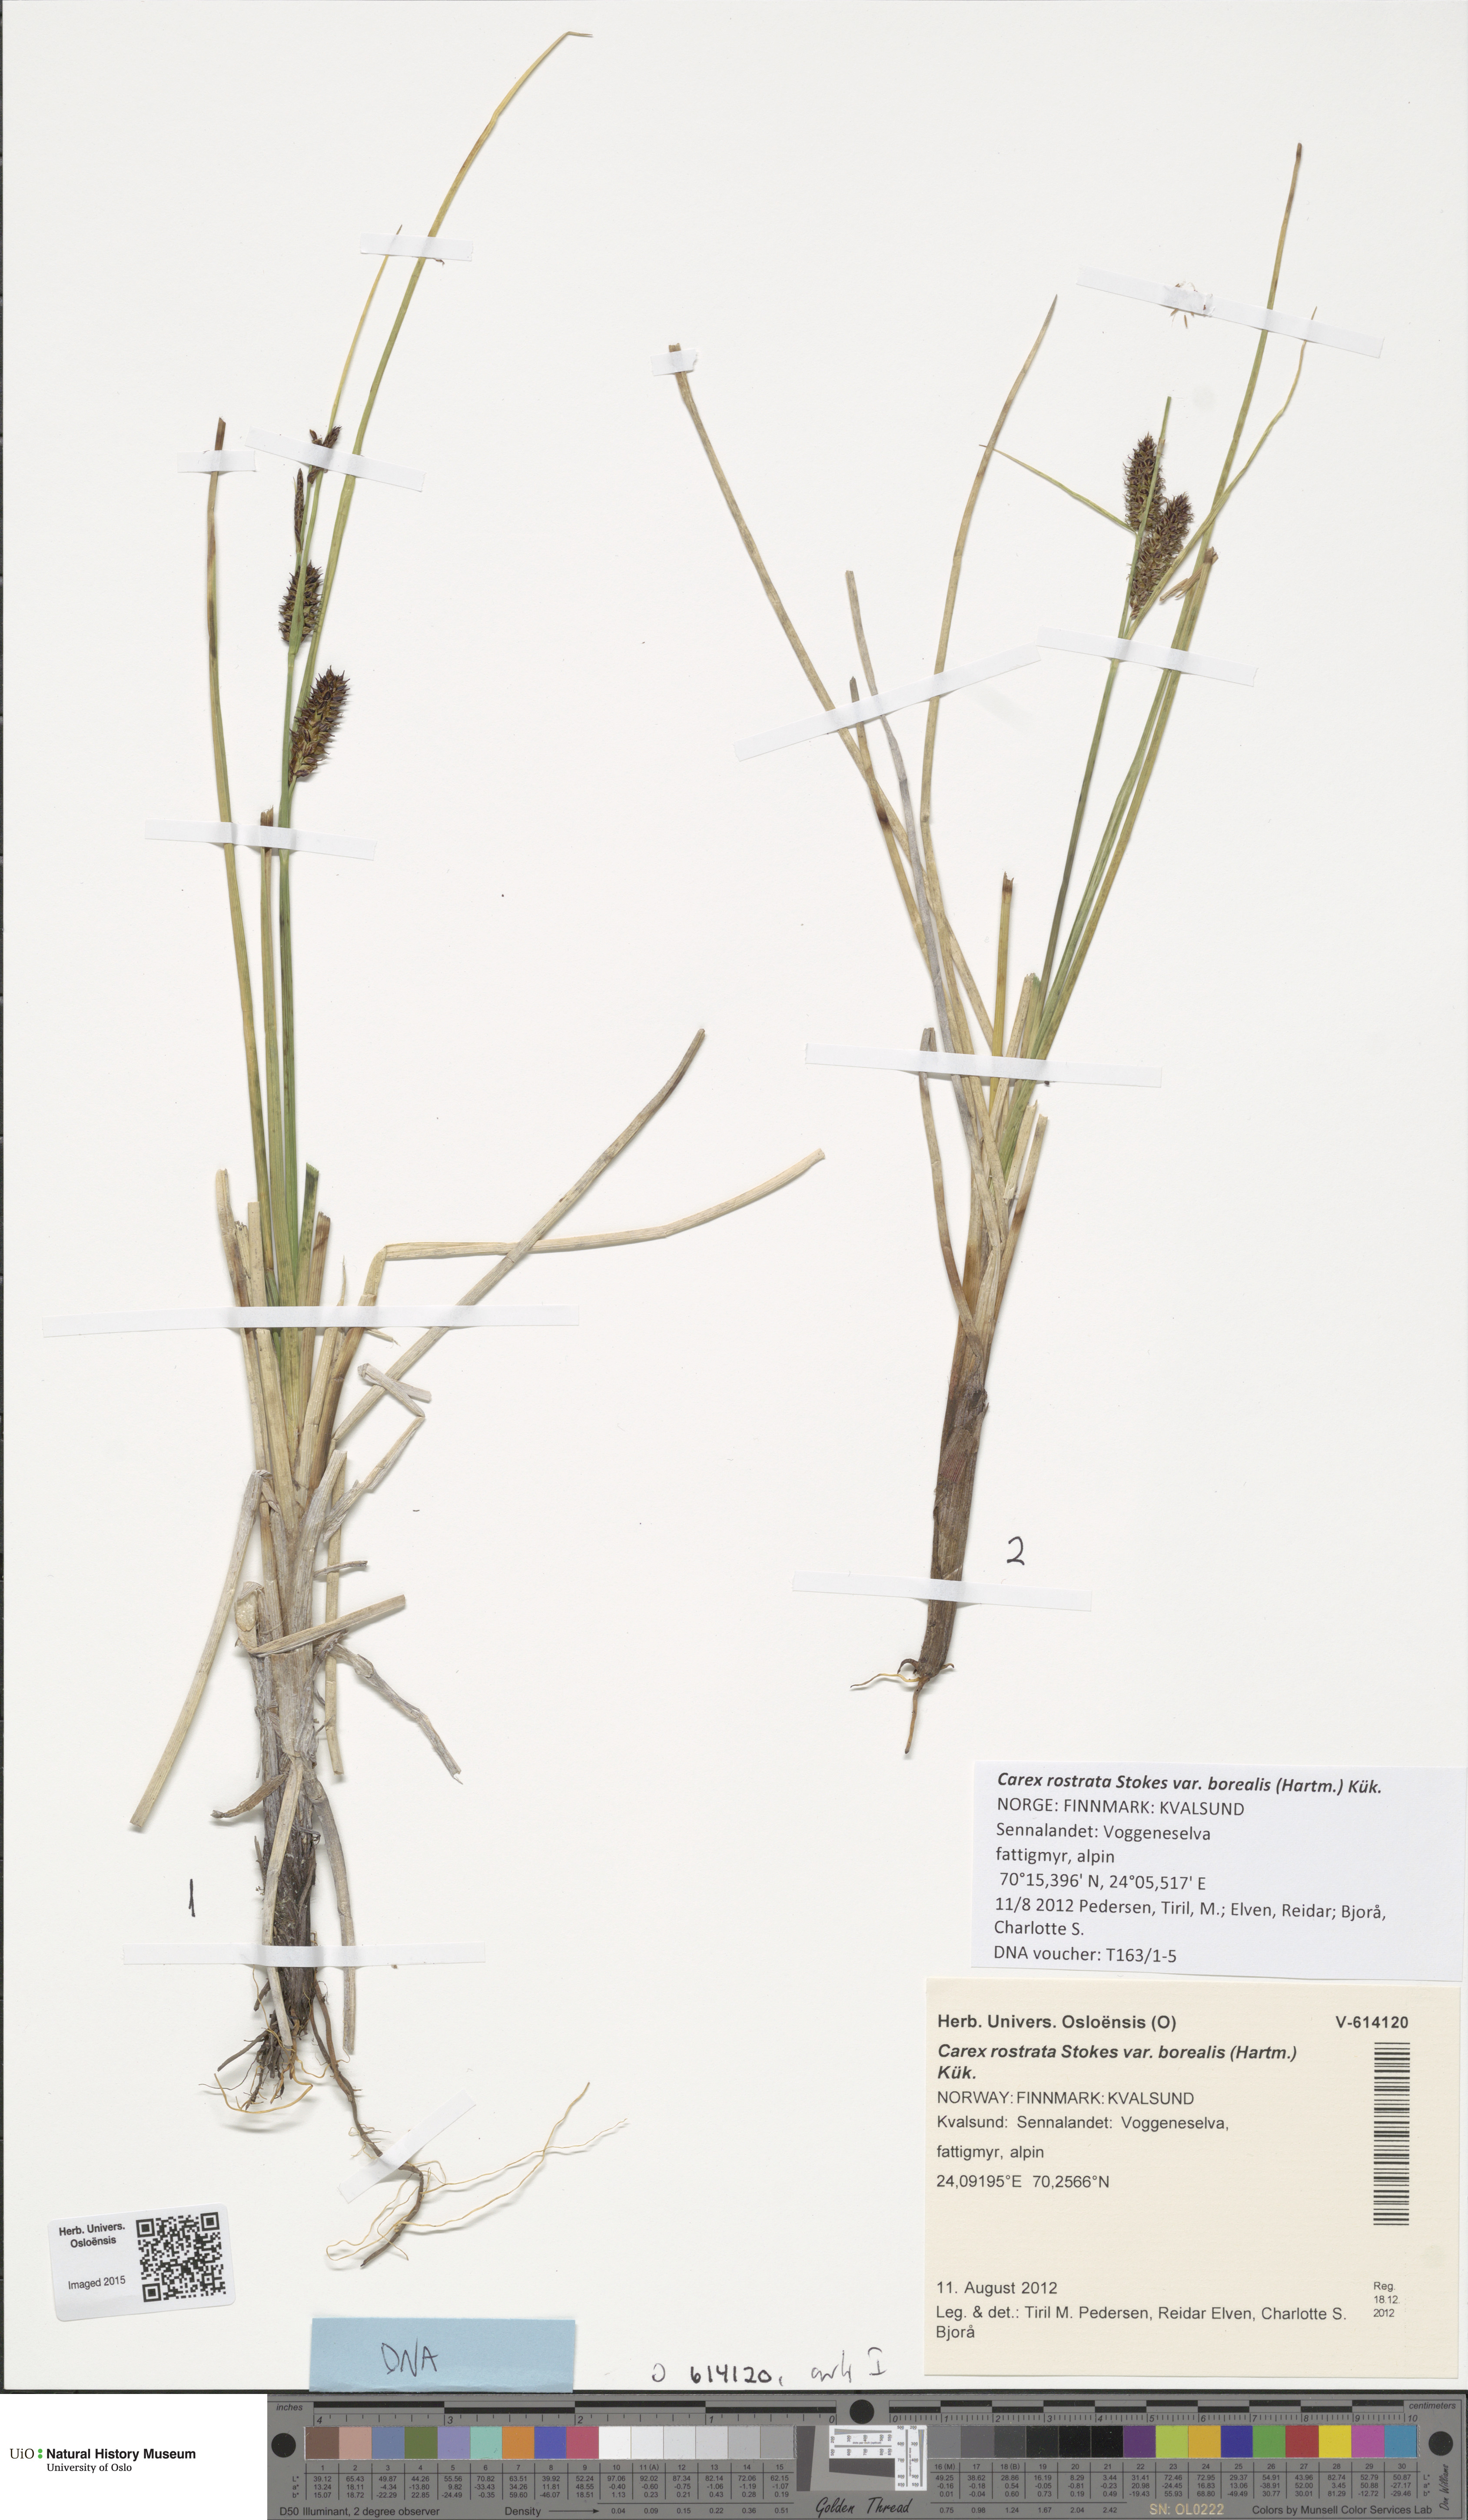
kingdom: Plantae
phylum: Tracheophyta
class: Liliopsida
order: Poales
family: Cyperaceae
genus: Carex
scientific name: Carex saamica
